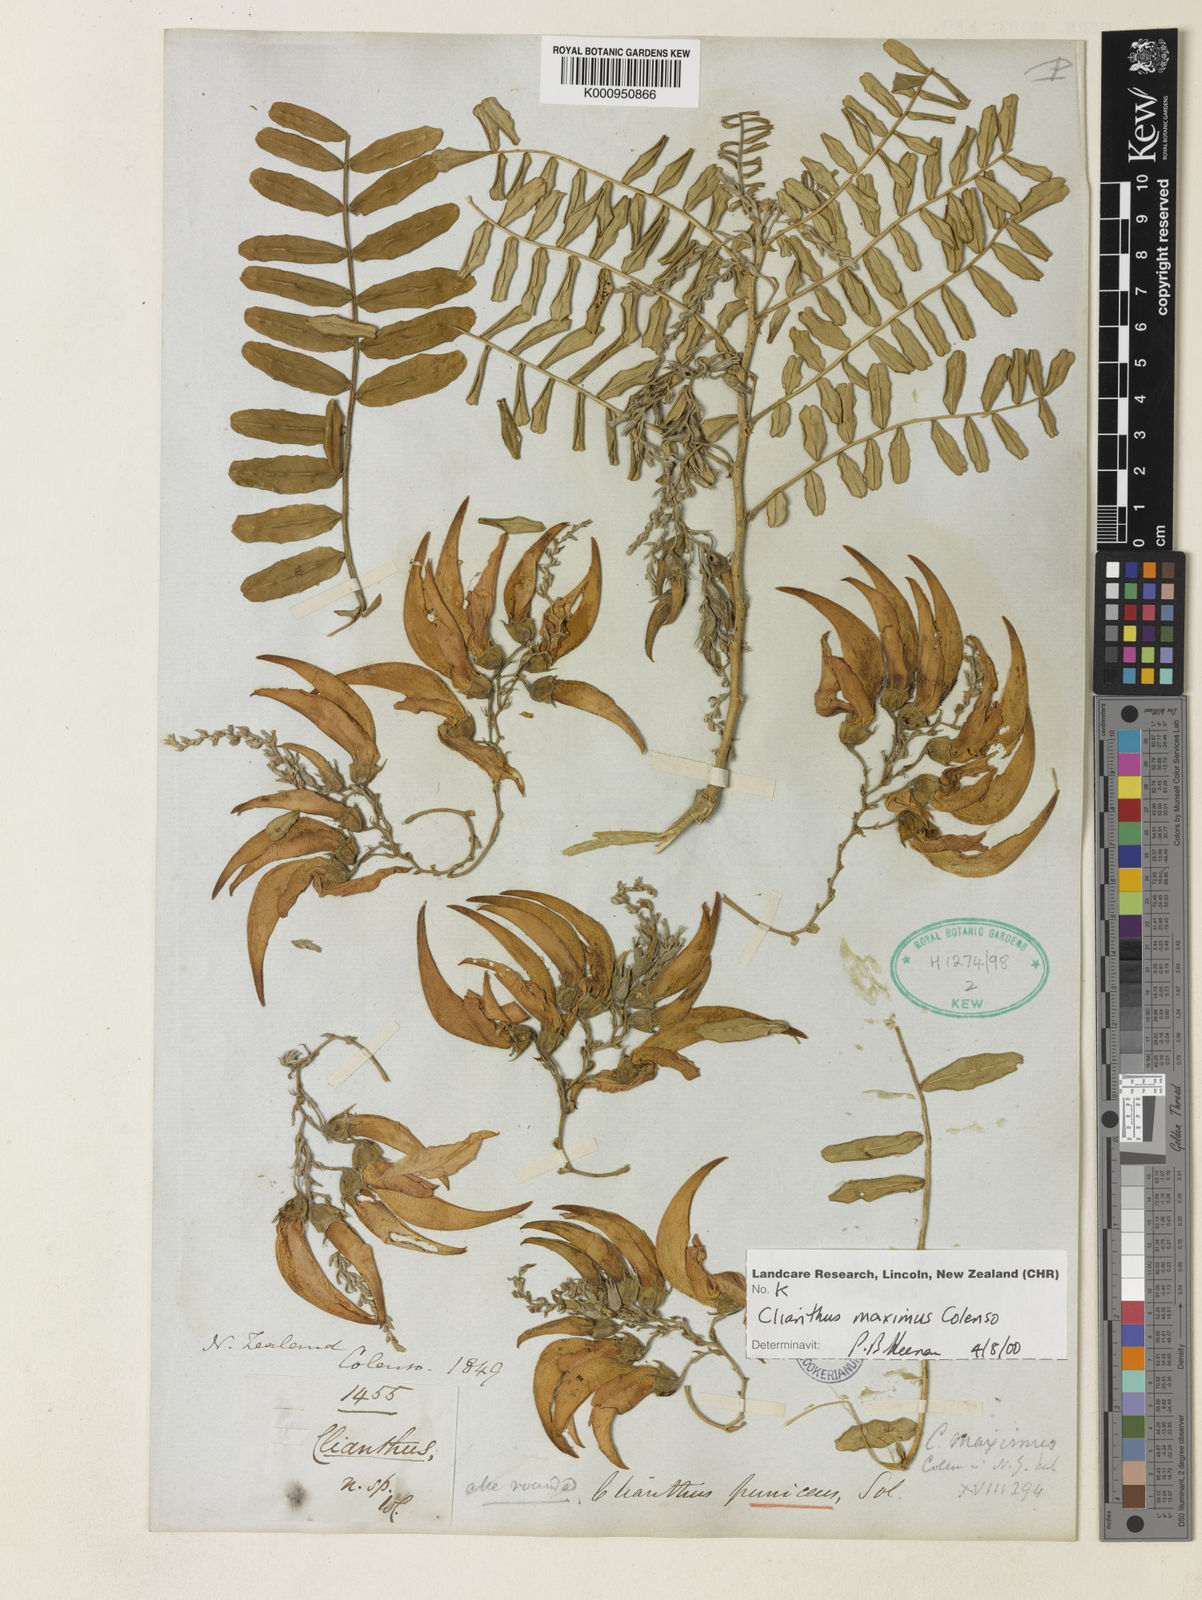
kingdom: Plantae
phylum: Tracheophyta
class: Magnoliopsida
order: Fabales
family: Fabaceae
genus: Clianthus
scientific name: Clianthus puniceus
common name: Kaka-beak
